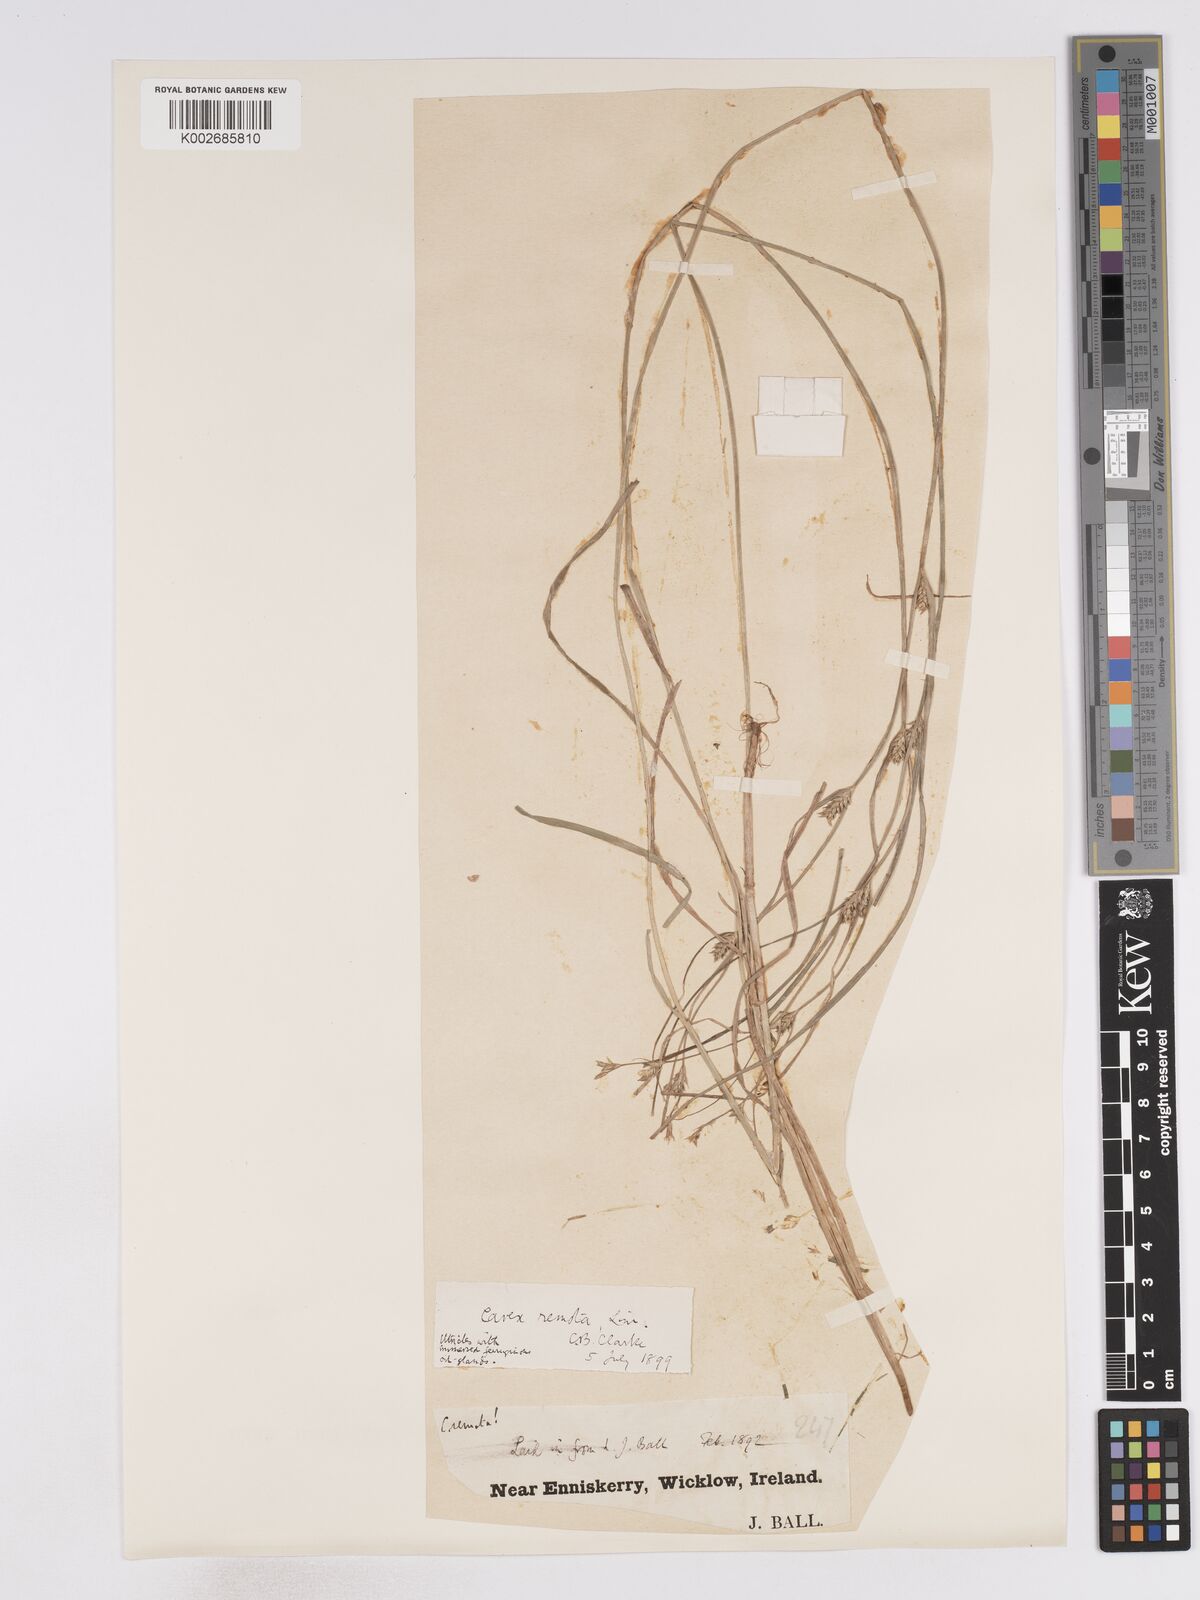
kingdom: Plantae
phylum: Tracheophyta
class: Liliopsida
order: Poales
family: Cyperaceae
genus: Carex
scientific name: Carex remota
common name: Remote sedge
